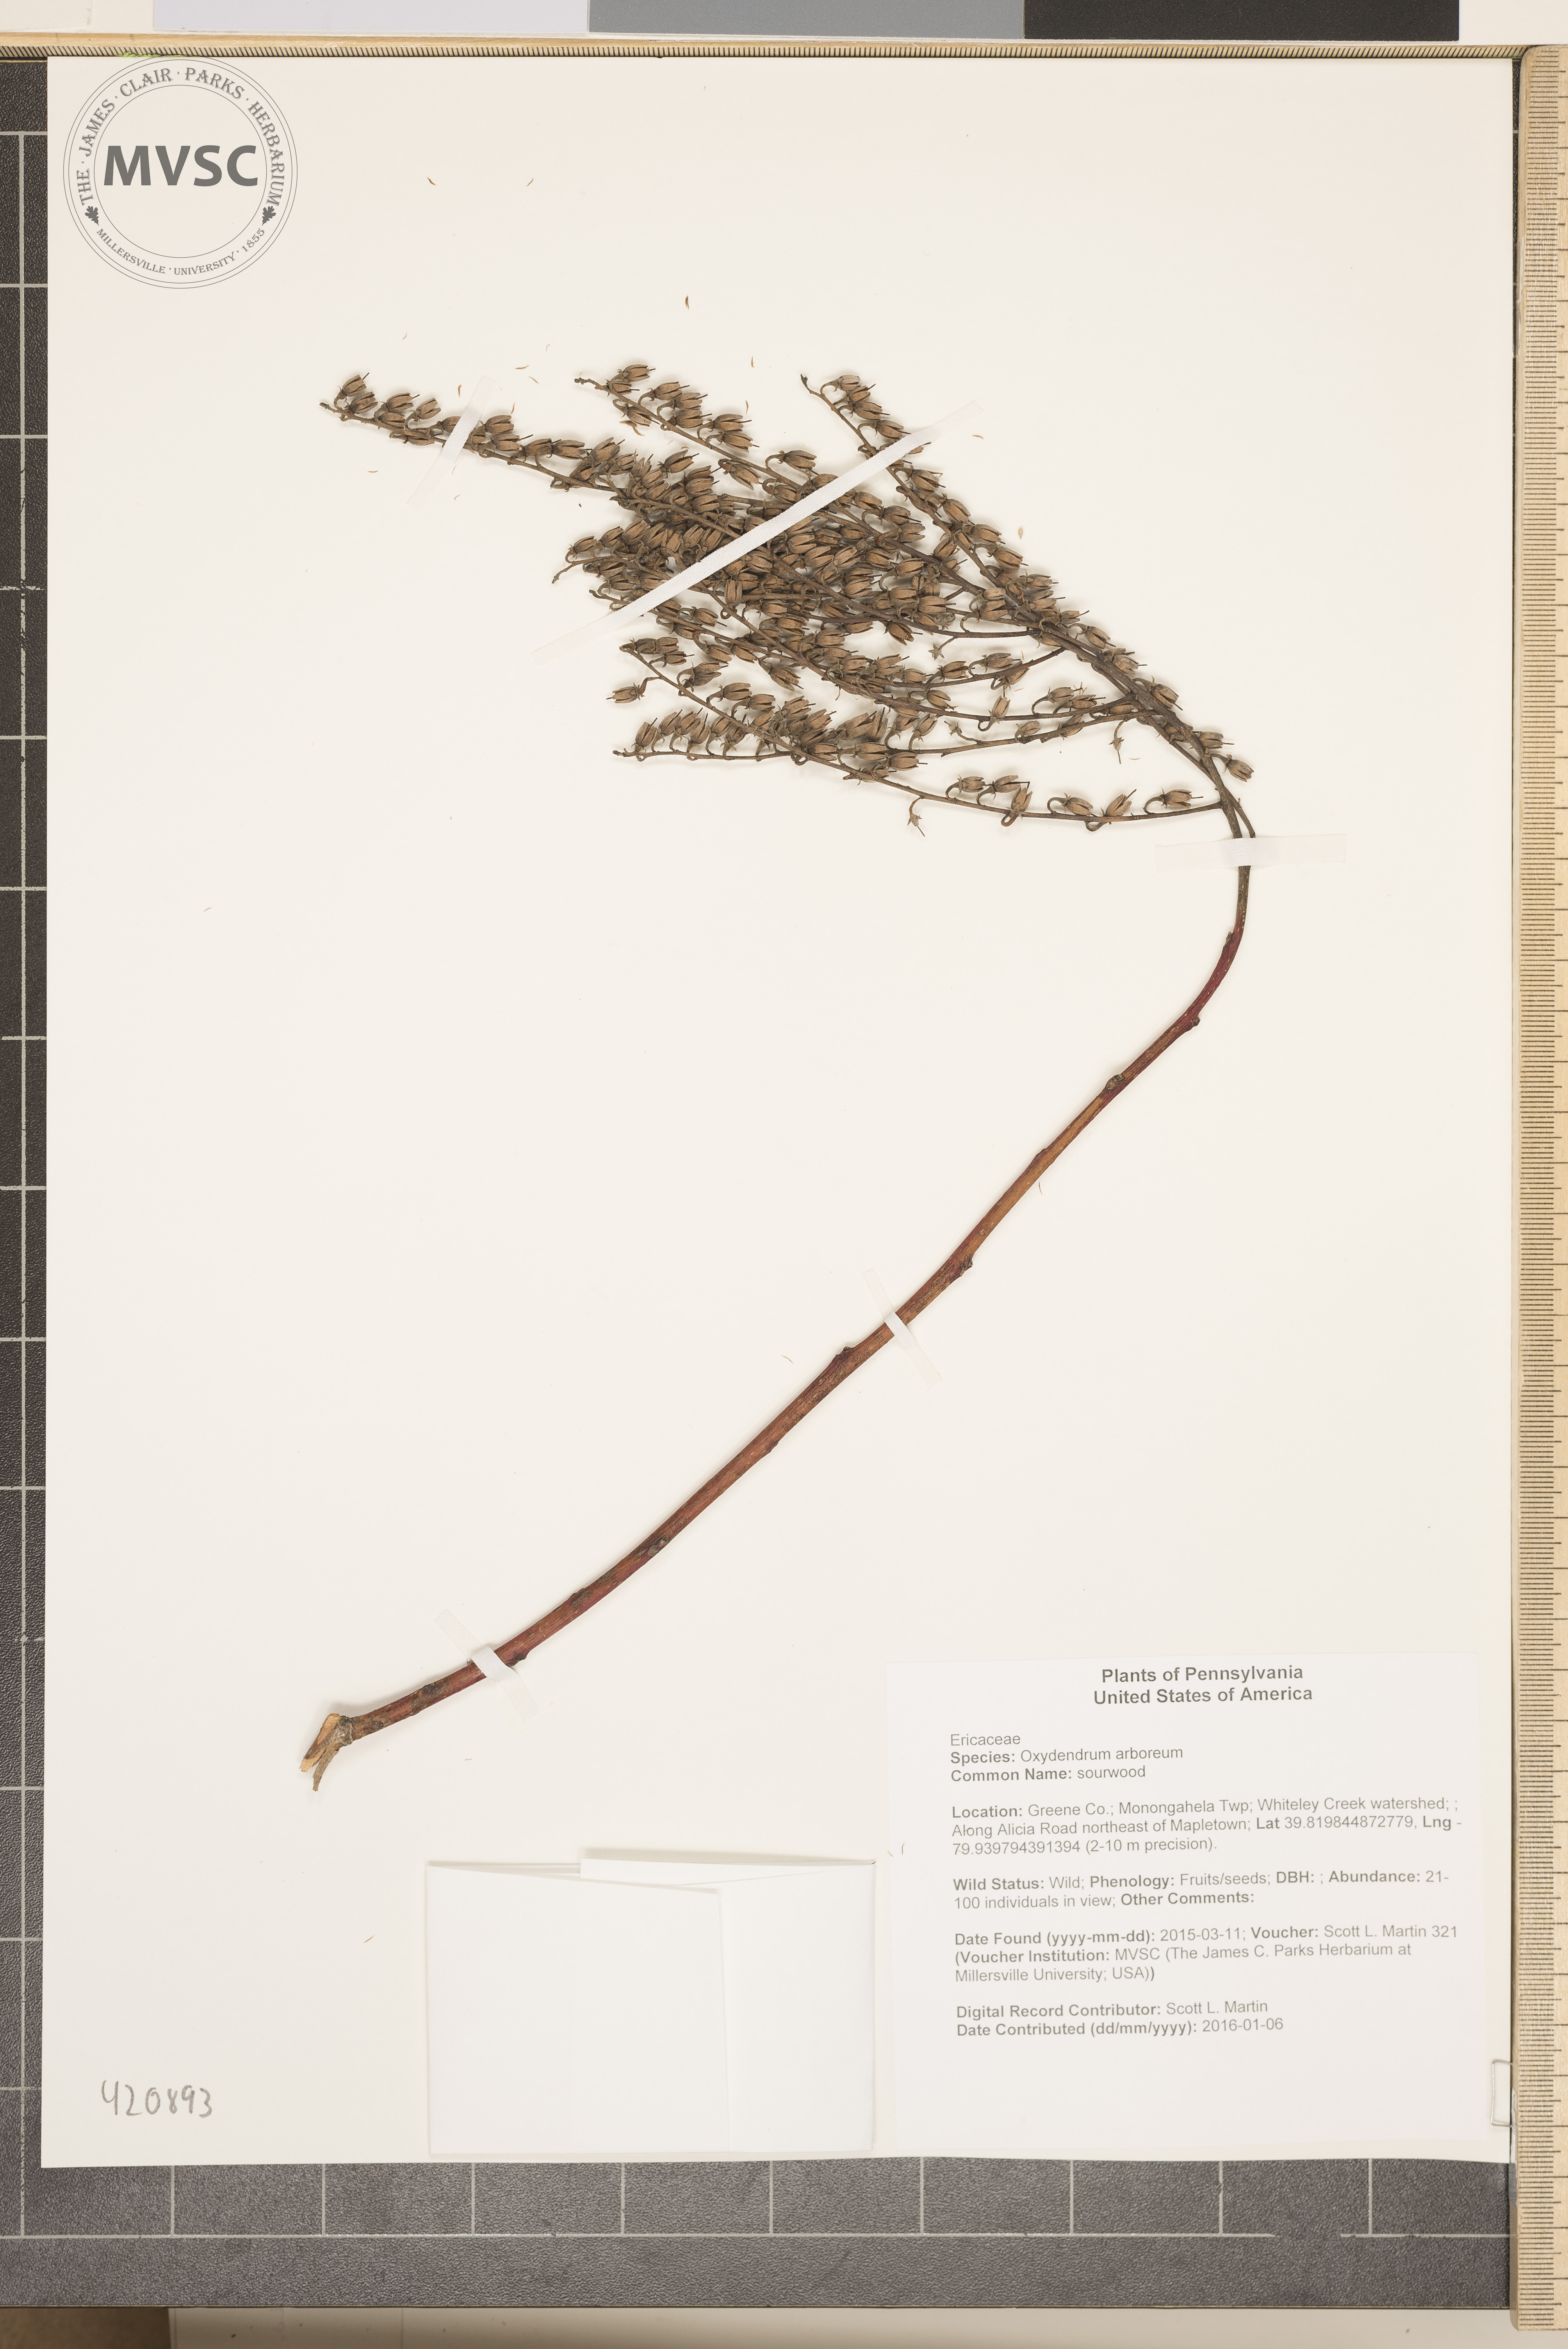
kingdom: Plantae
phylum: Tracheophyta
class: Magnoliopsida
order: Ericales
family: Ericaceae
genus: Oxydendrum
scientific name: Oxydendrum arboreum
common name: sourwood
